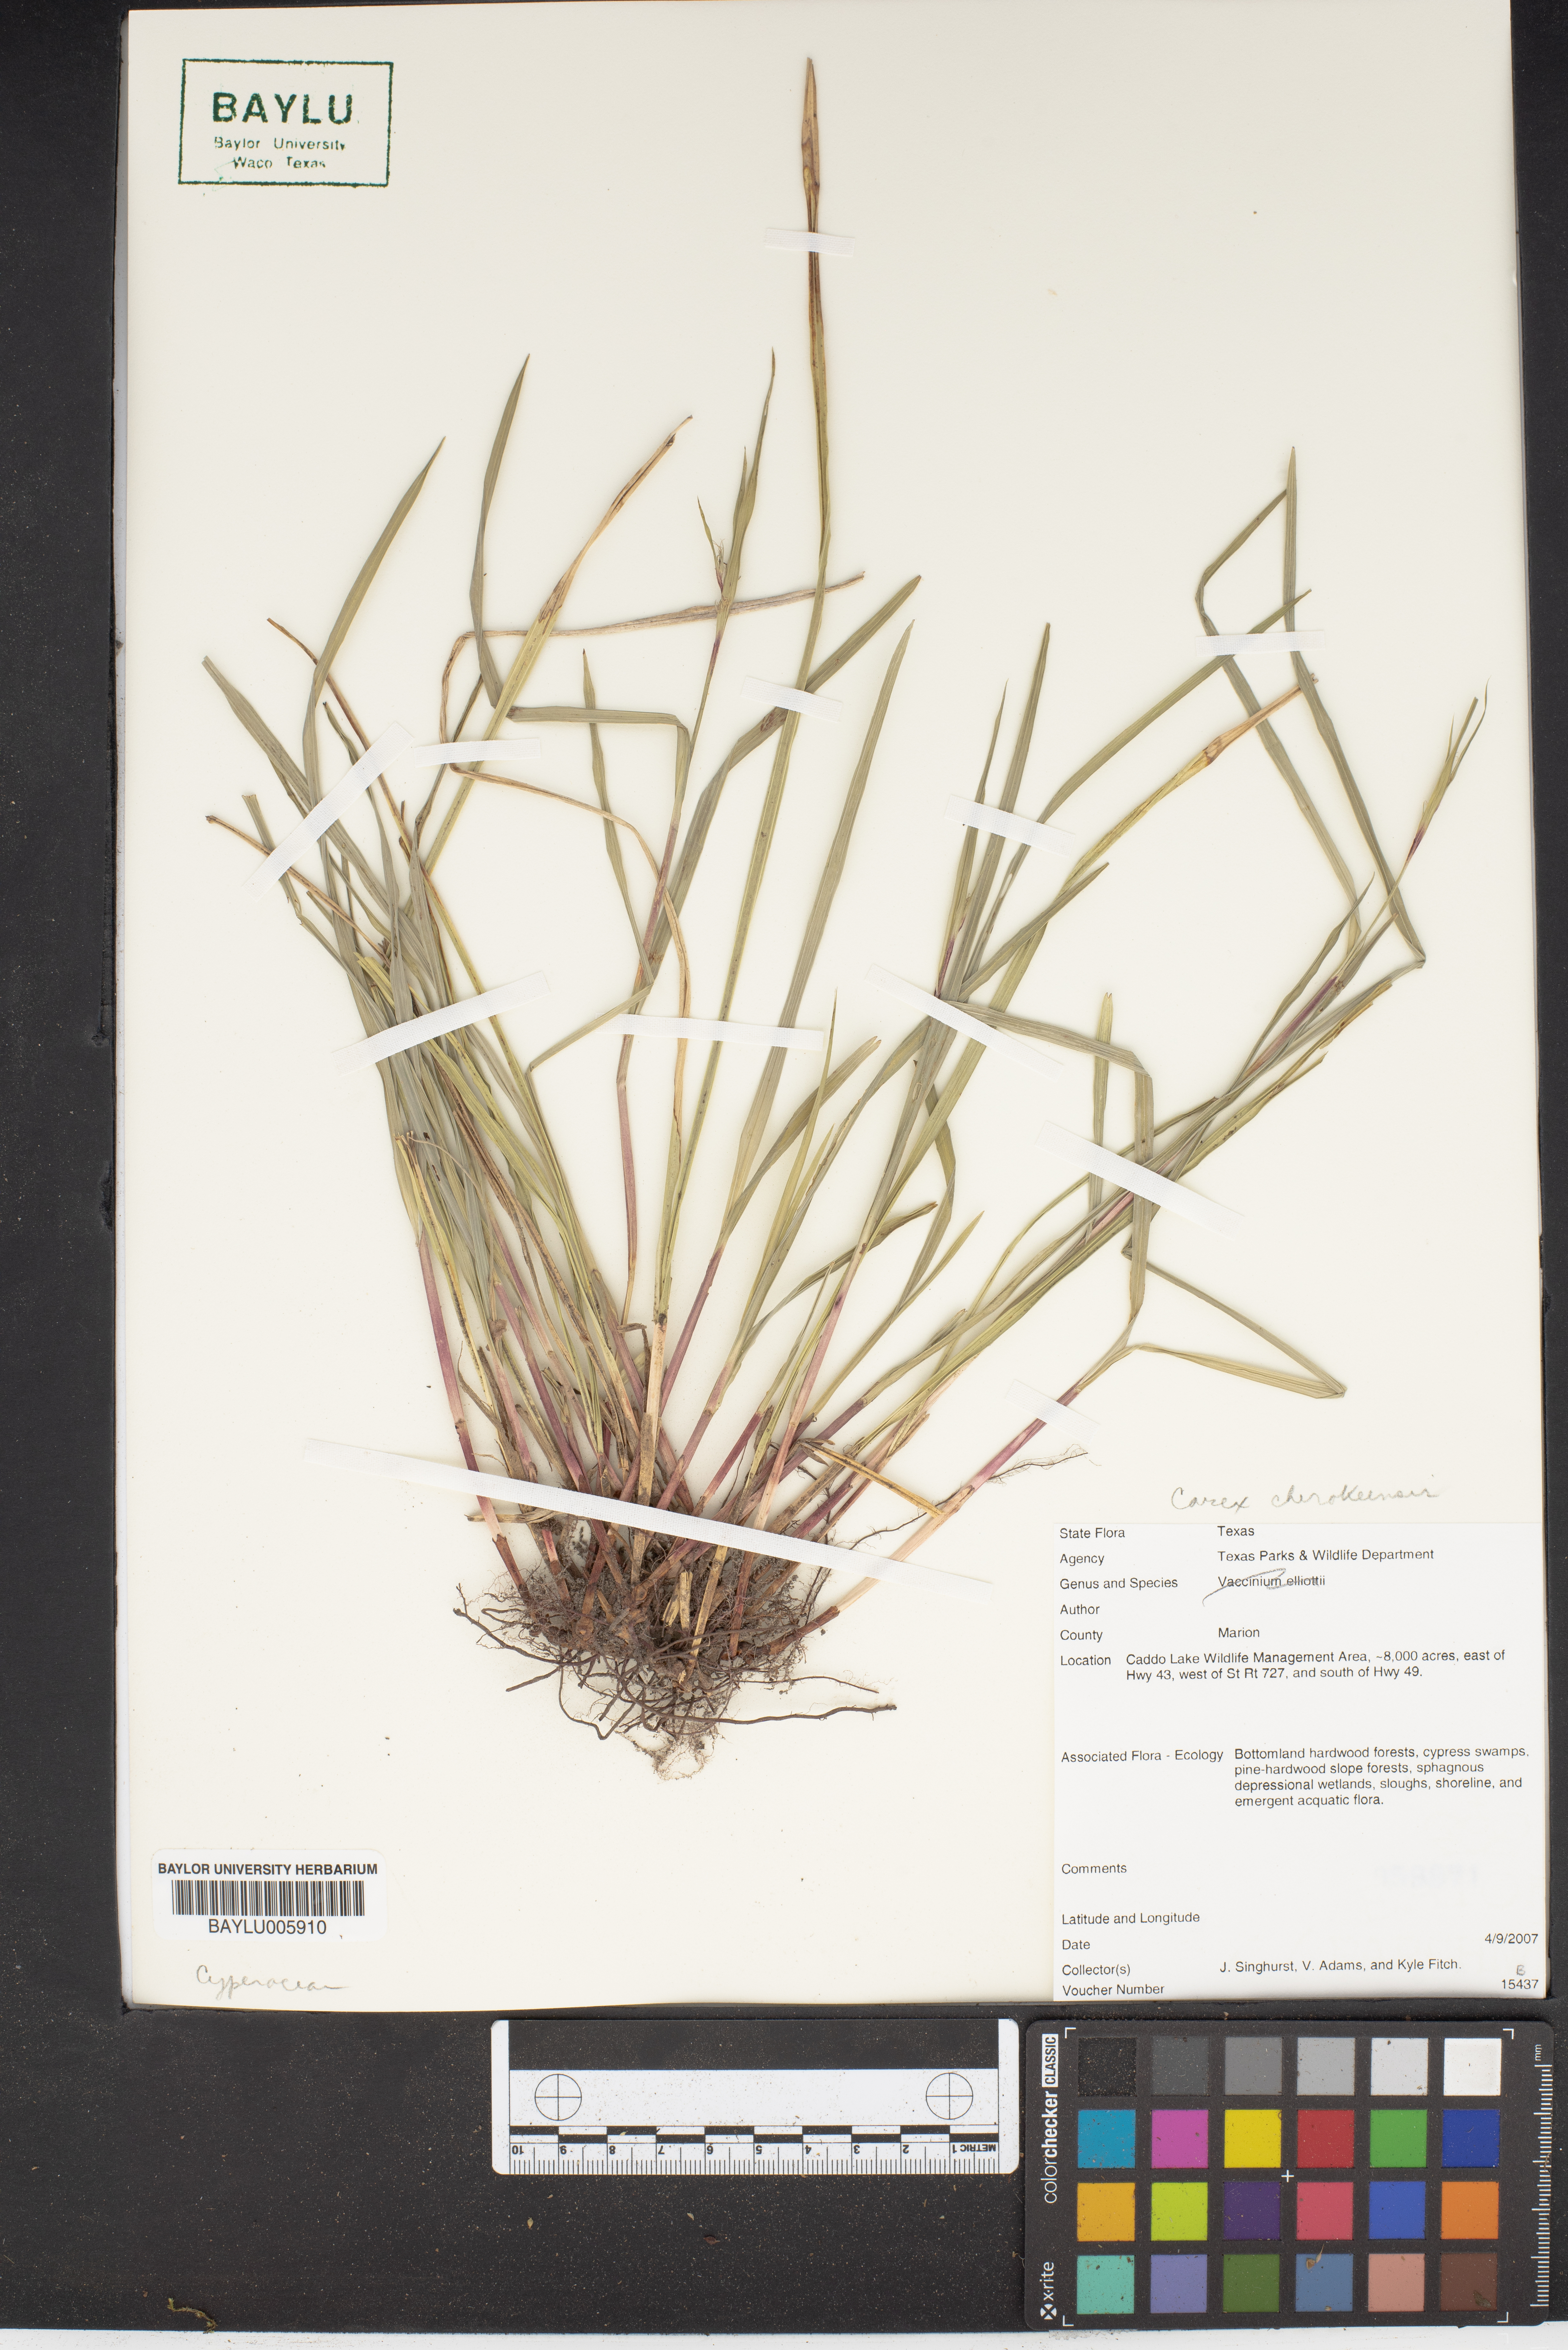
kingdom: Plantae
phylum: Tracheophyta
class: Liliopsida
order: Poales
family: Cyperaceae
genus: Carex
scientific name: Carex cherokeensis
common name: Cherokee sedge
